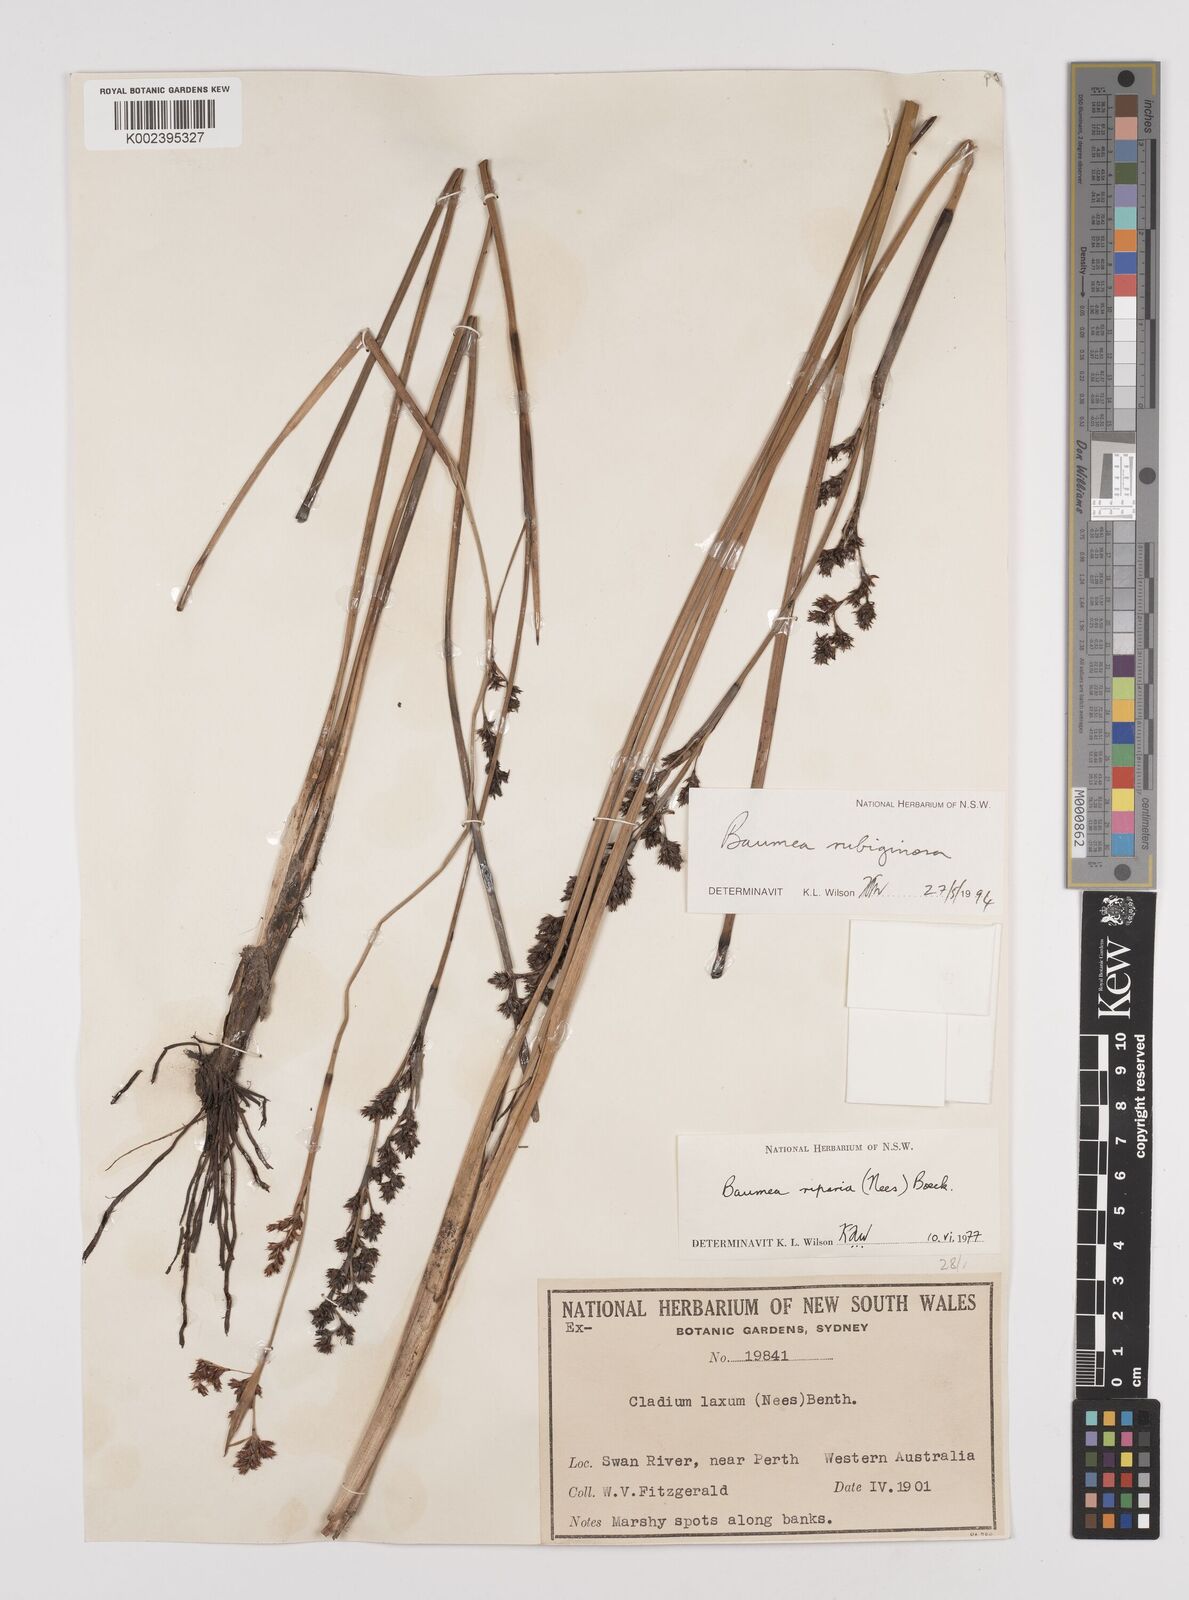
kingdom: Plantae
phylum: Tracheophyta
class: Liliopsida
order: Poales
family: Cyperaceae
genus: Machaerina
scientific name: Machaerina rubiginosa
